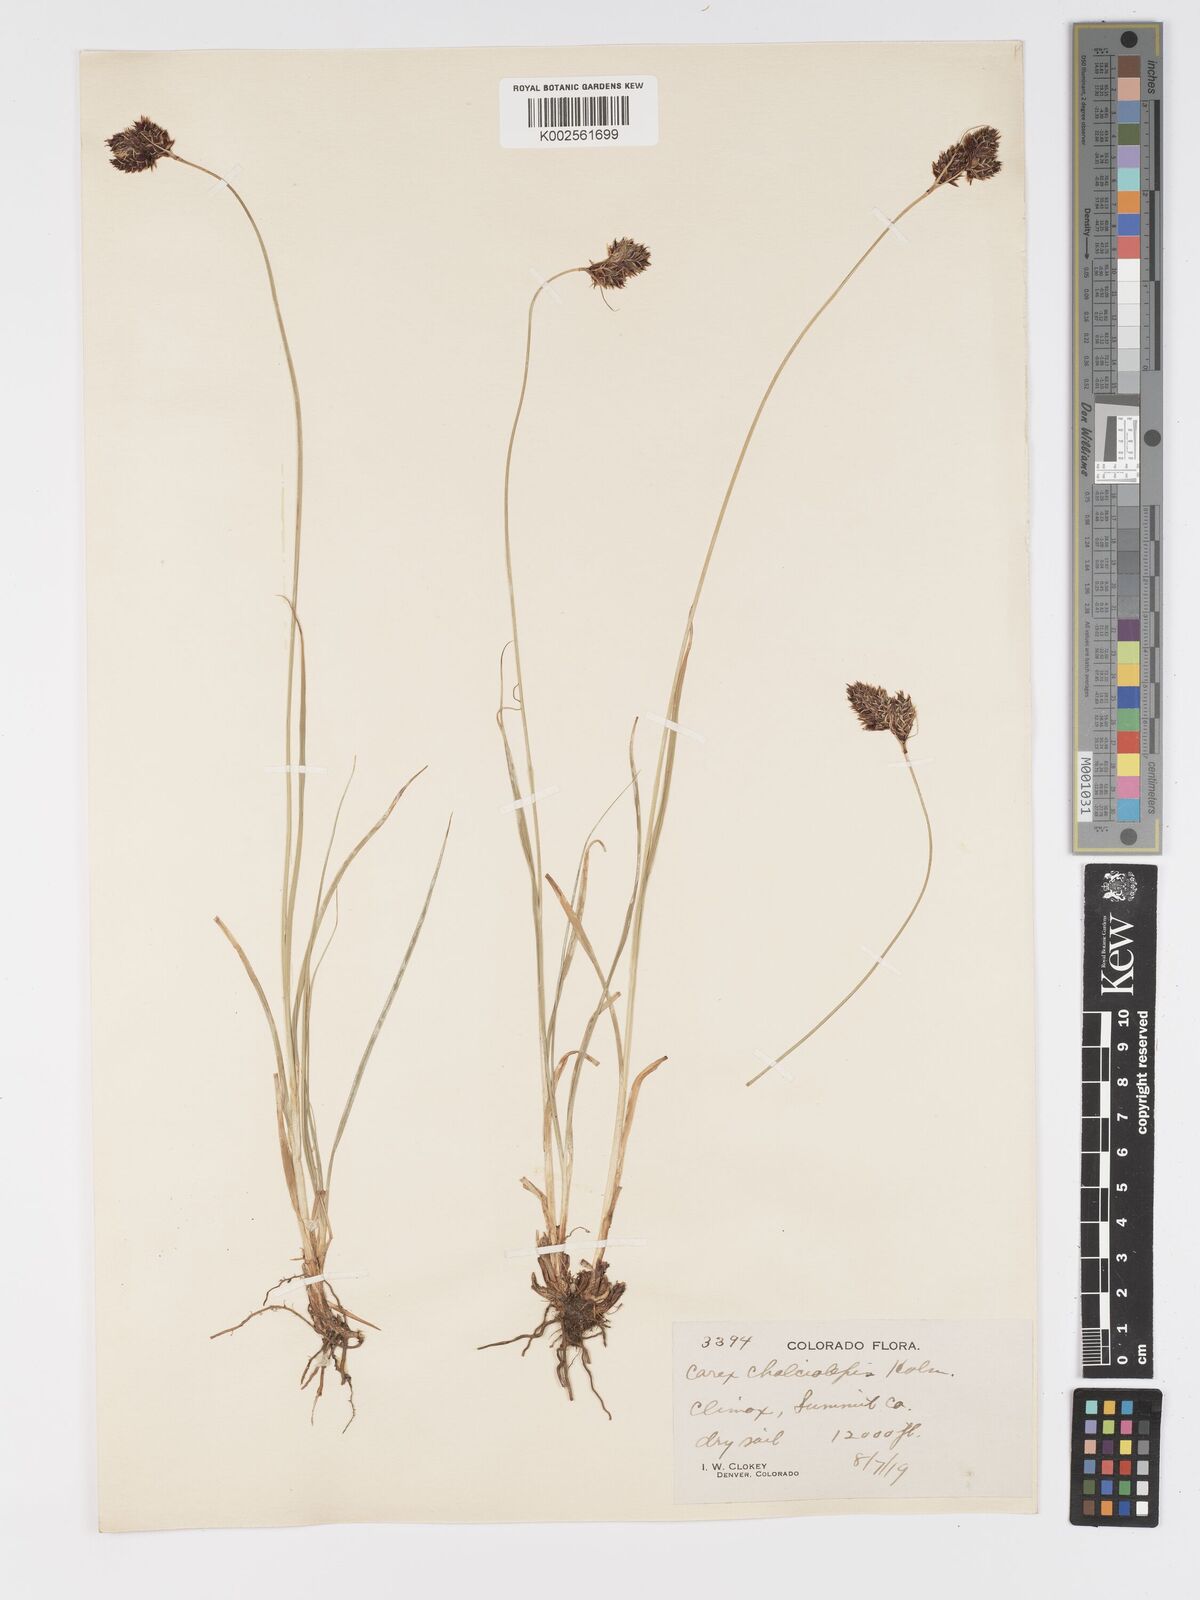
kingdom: Plantae
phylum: Tracheophyta
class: Liliopsida
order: Poales
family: Cyperaceae
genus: Carex
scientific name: Carex chalciolepis
